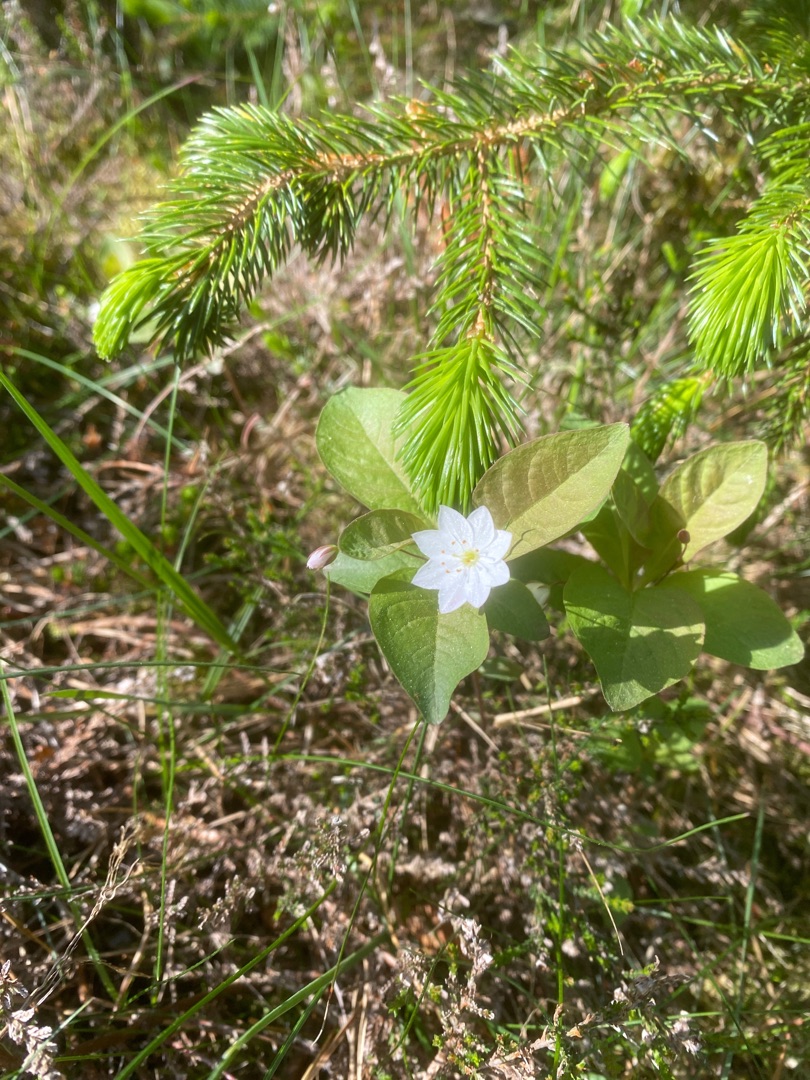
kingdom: Plantae
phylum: Tracheophyta
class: Magnoliopsida
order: Ericales
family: Primulaceae
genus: Lysimachia
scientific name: Lysimachia europaea
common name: Skovstjerne
